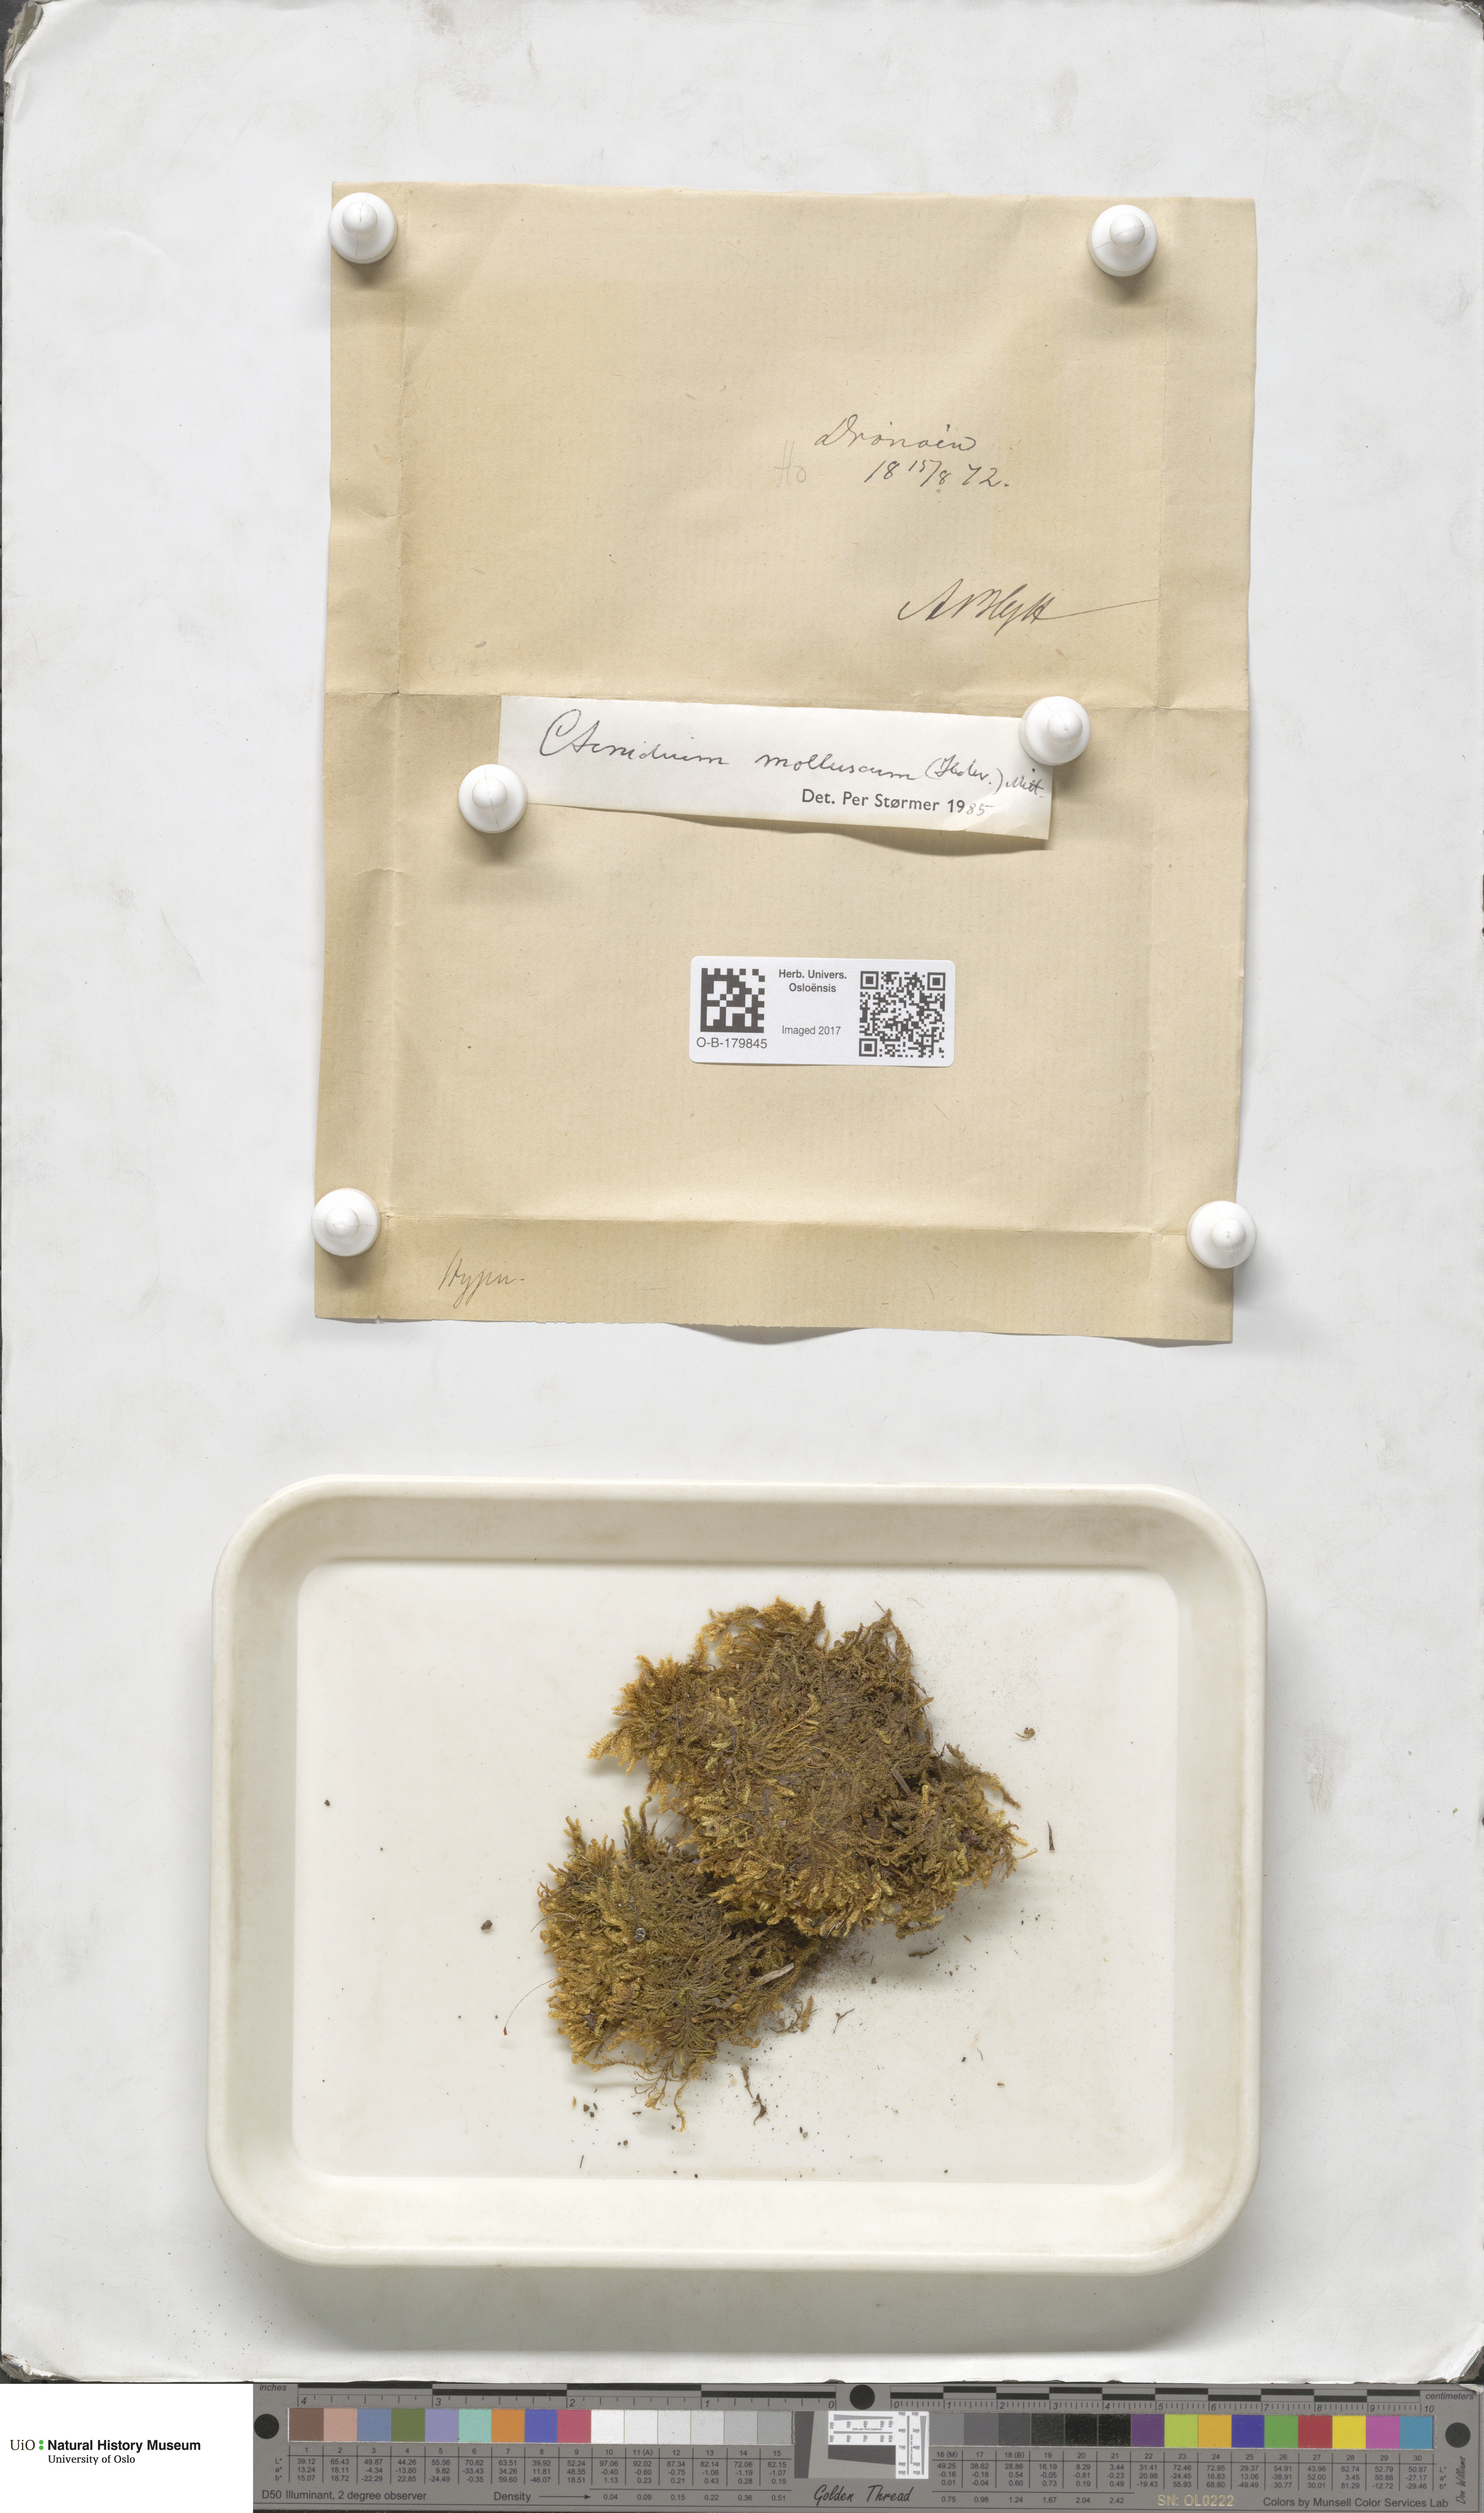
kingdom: Plantae
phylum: Bryophyta
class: Bryopsida
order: Hypnales
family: Myuriaceae
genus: Ctenidium
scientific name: Ctenidium molluscum
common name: Chalk comb-moss
